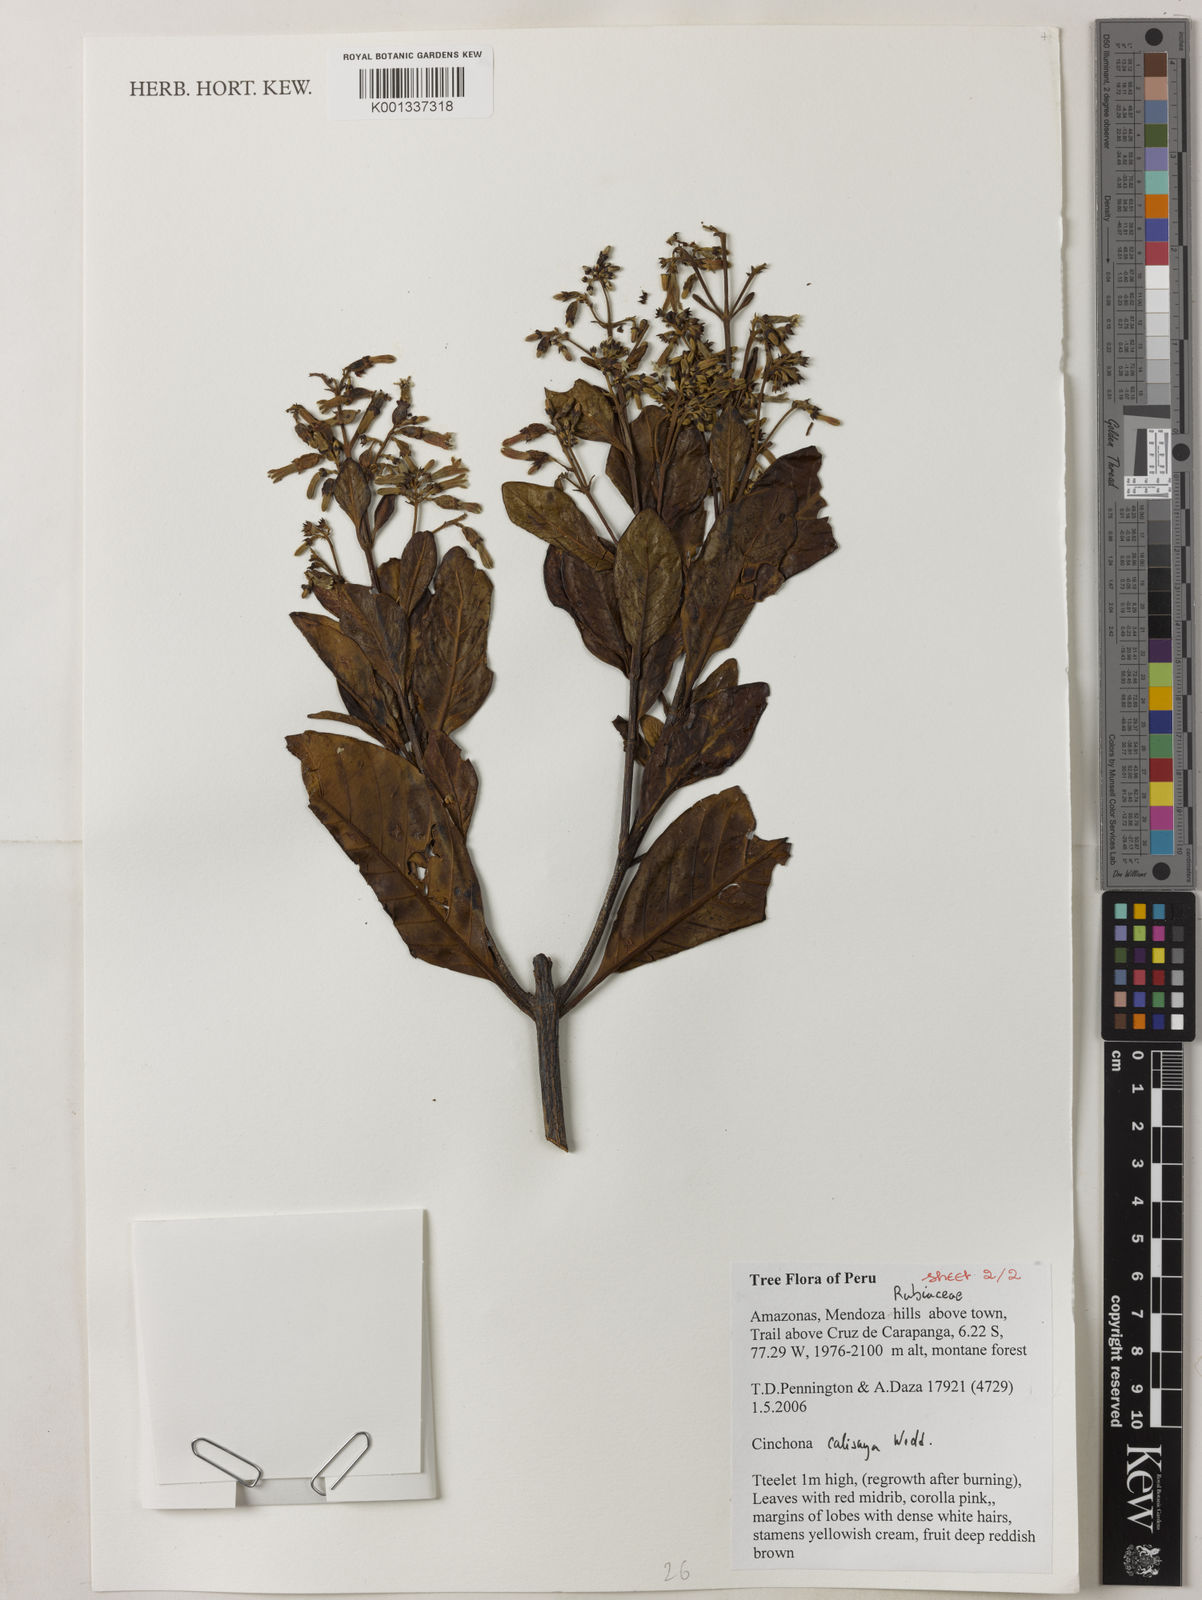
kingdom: Plantae
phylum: Tracheophyta
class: Magnoliopsida
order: Gentianales
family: Rubiaceae
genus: Cinchona
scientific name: Cinchona calisaya
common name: Ledgerbark
